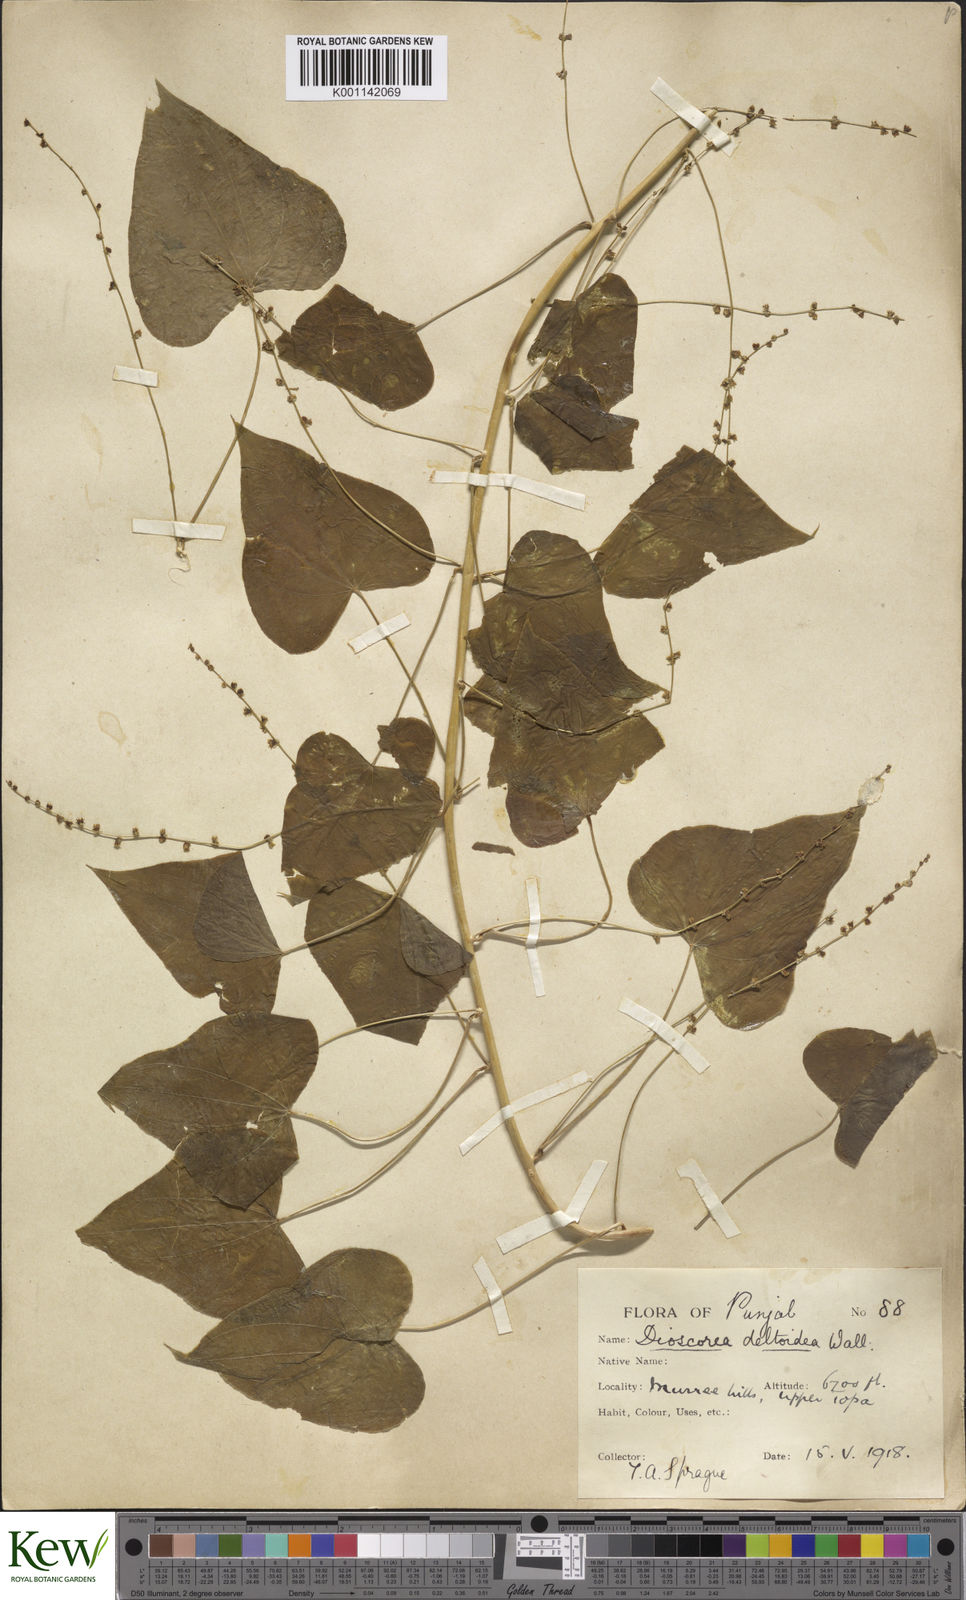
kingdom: Plantae
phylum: Tracheophyta
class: Liliopsida
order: Dioscoreales
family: Dioscoreaceae
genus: Dioscorea
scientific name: Dioscorea deltoidea
